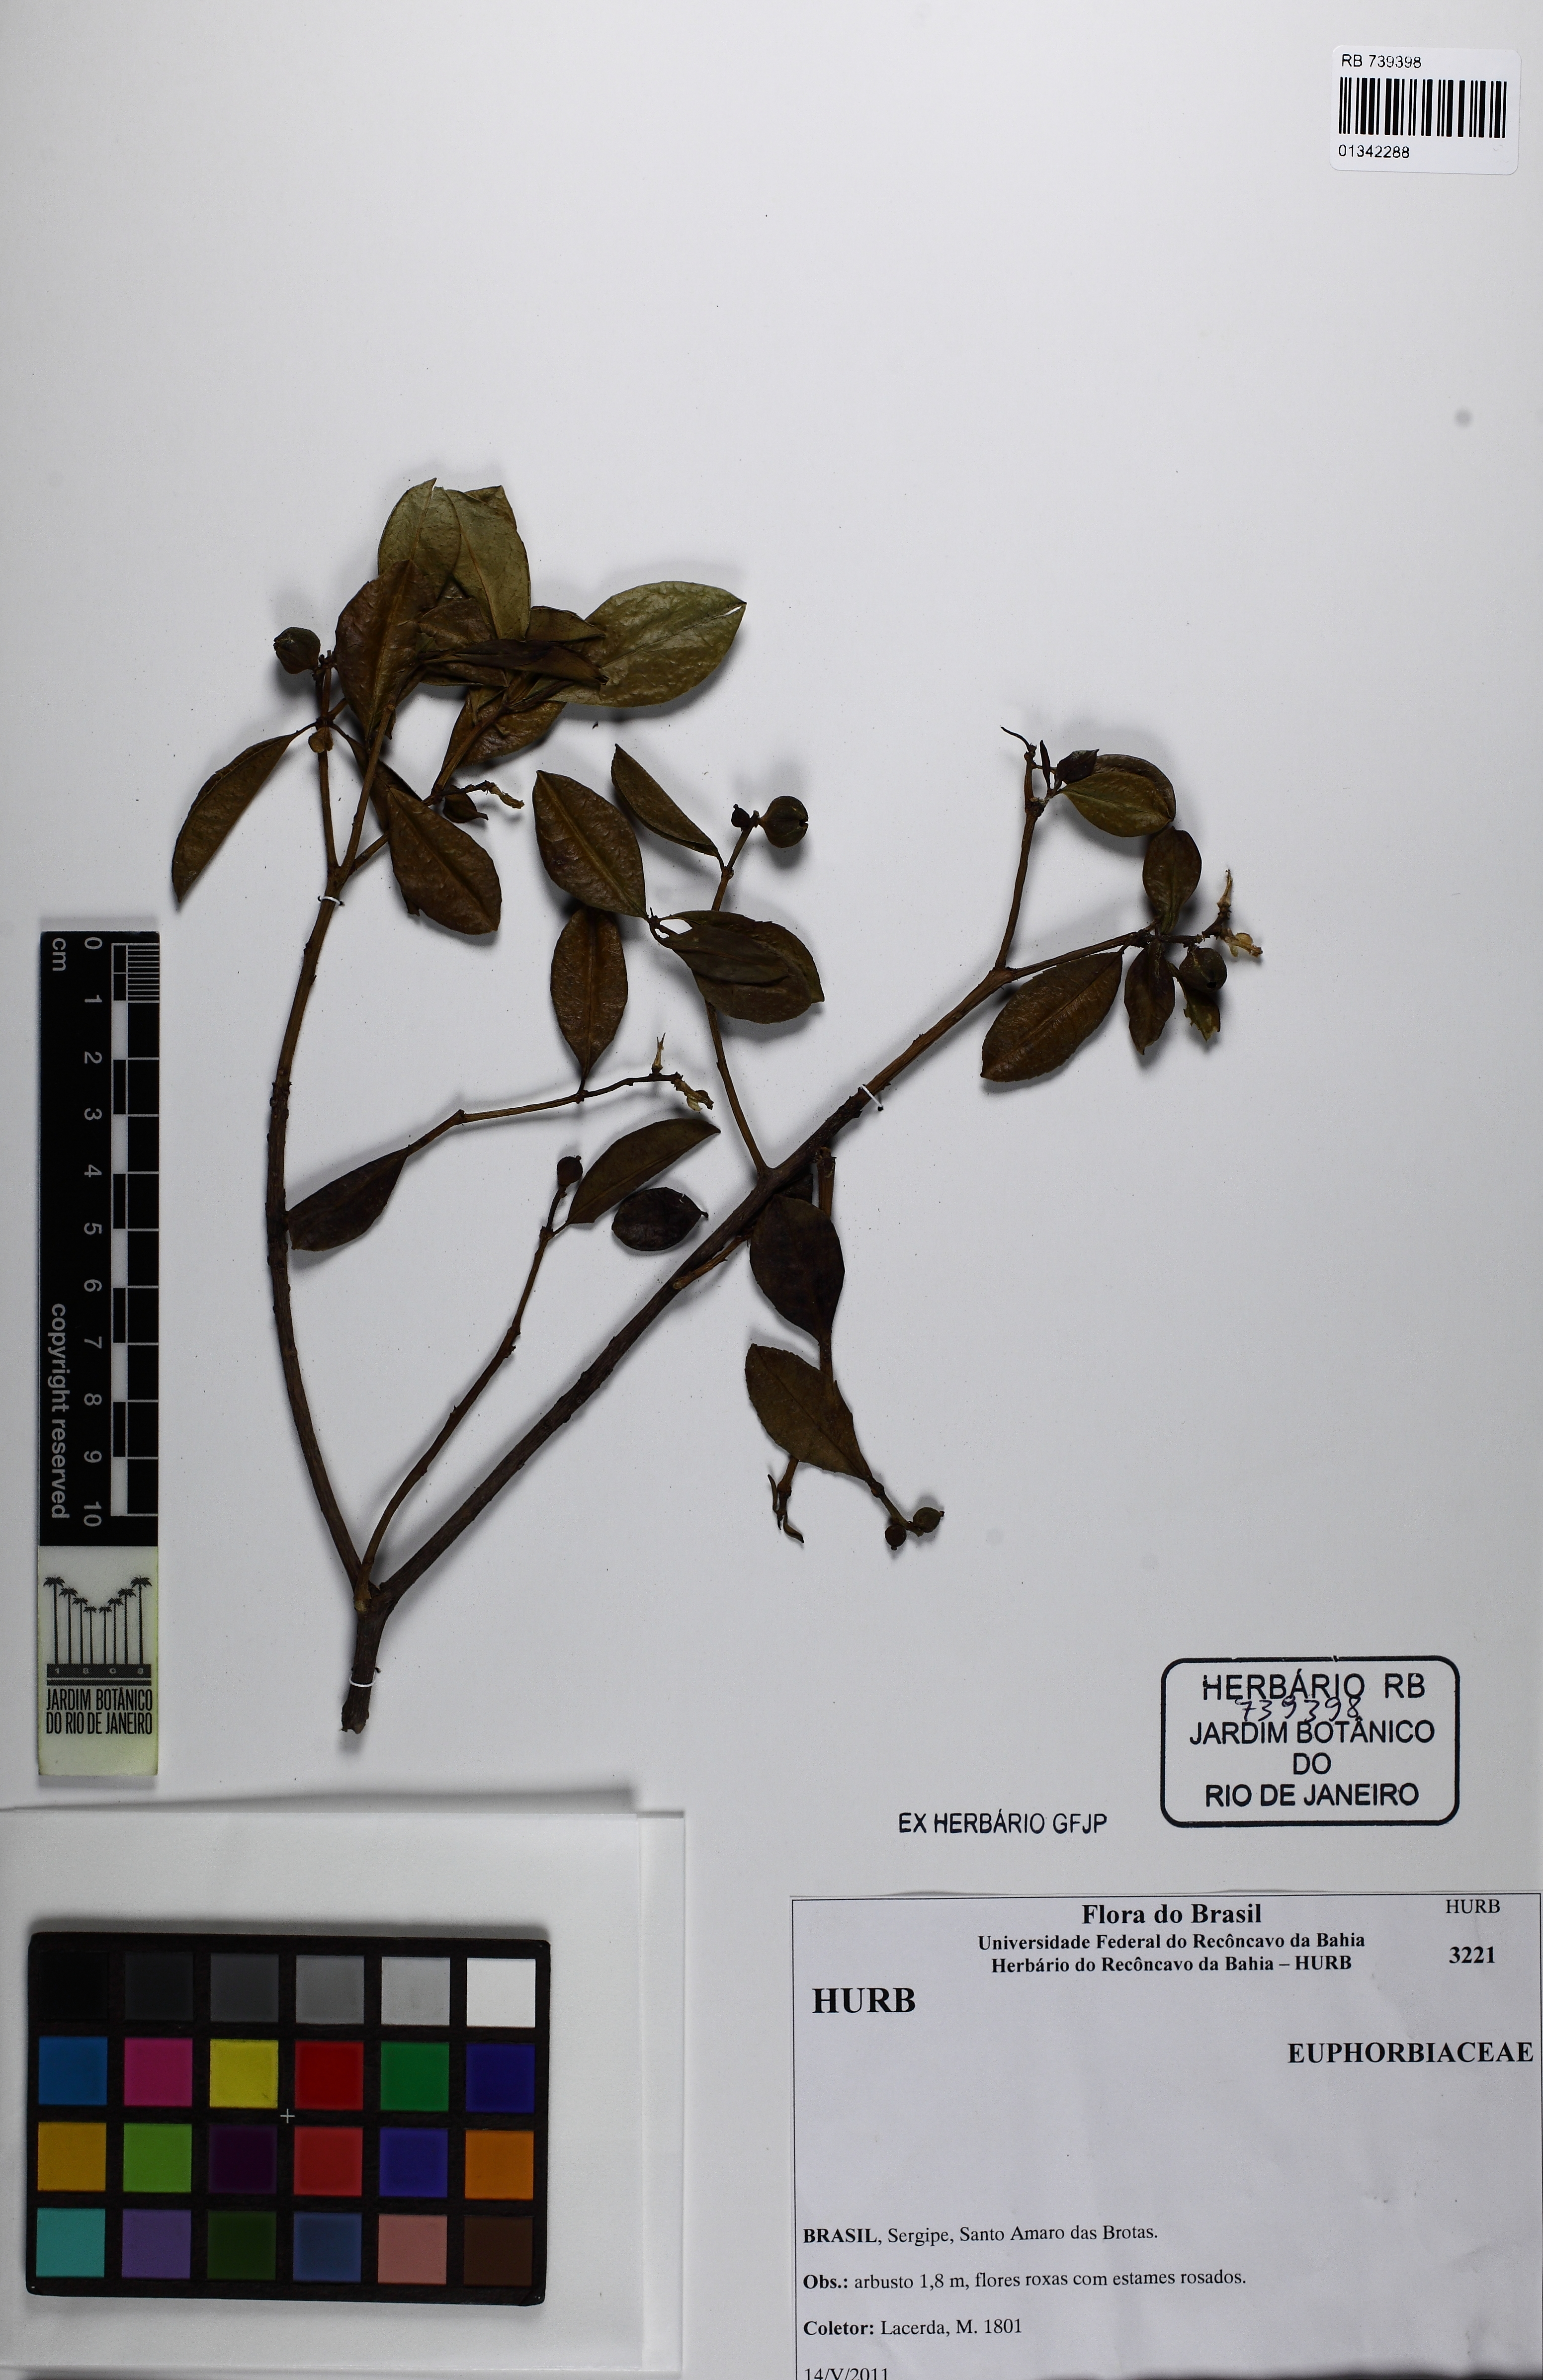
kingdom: Plantae
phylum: Tracheophyta
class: Magnoliopsida
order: Malpighiales
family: Euphorbiaceae
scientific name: Euphorbiaceae
